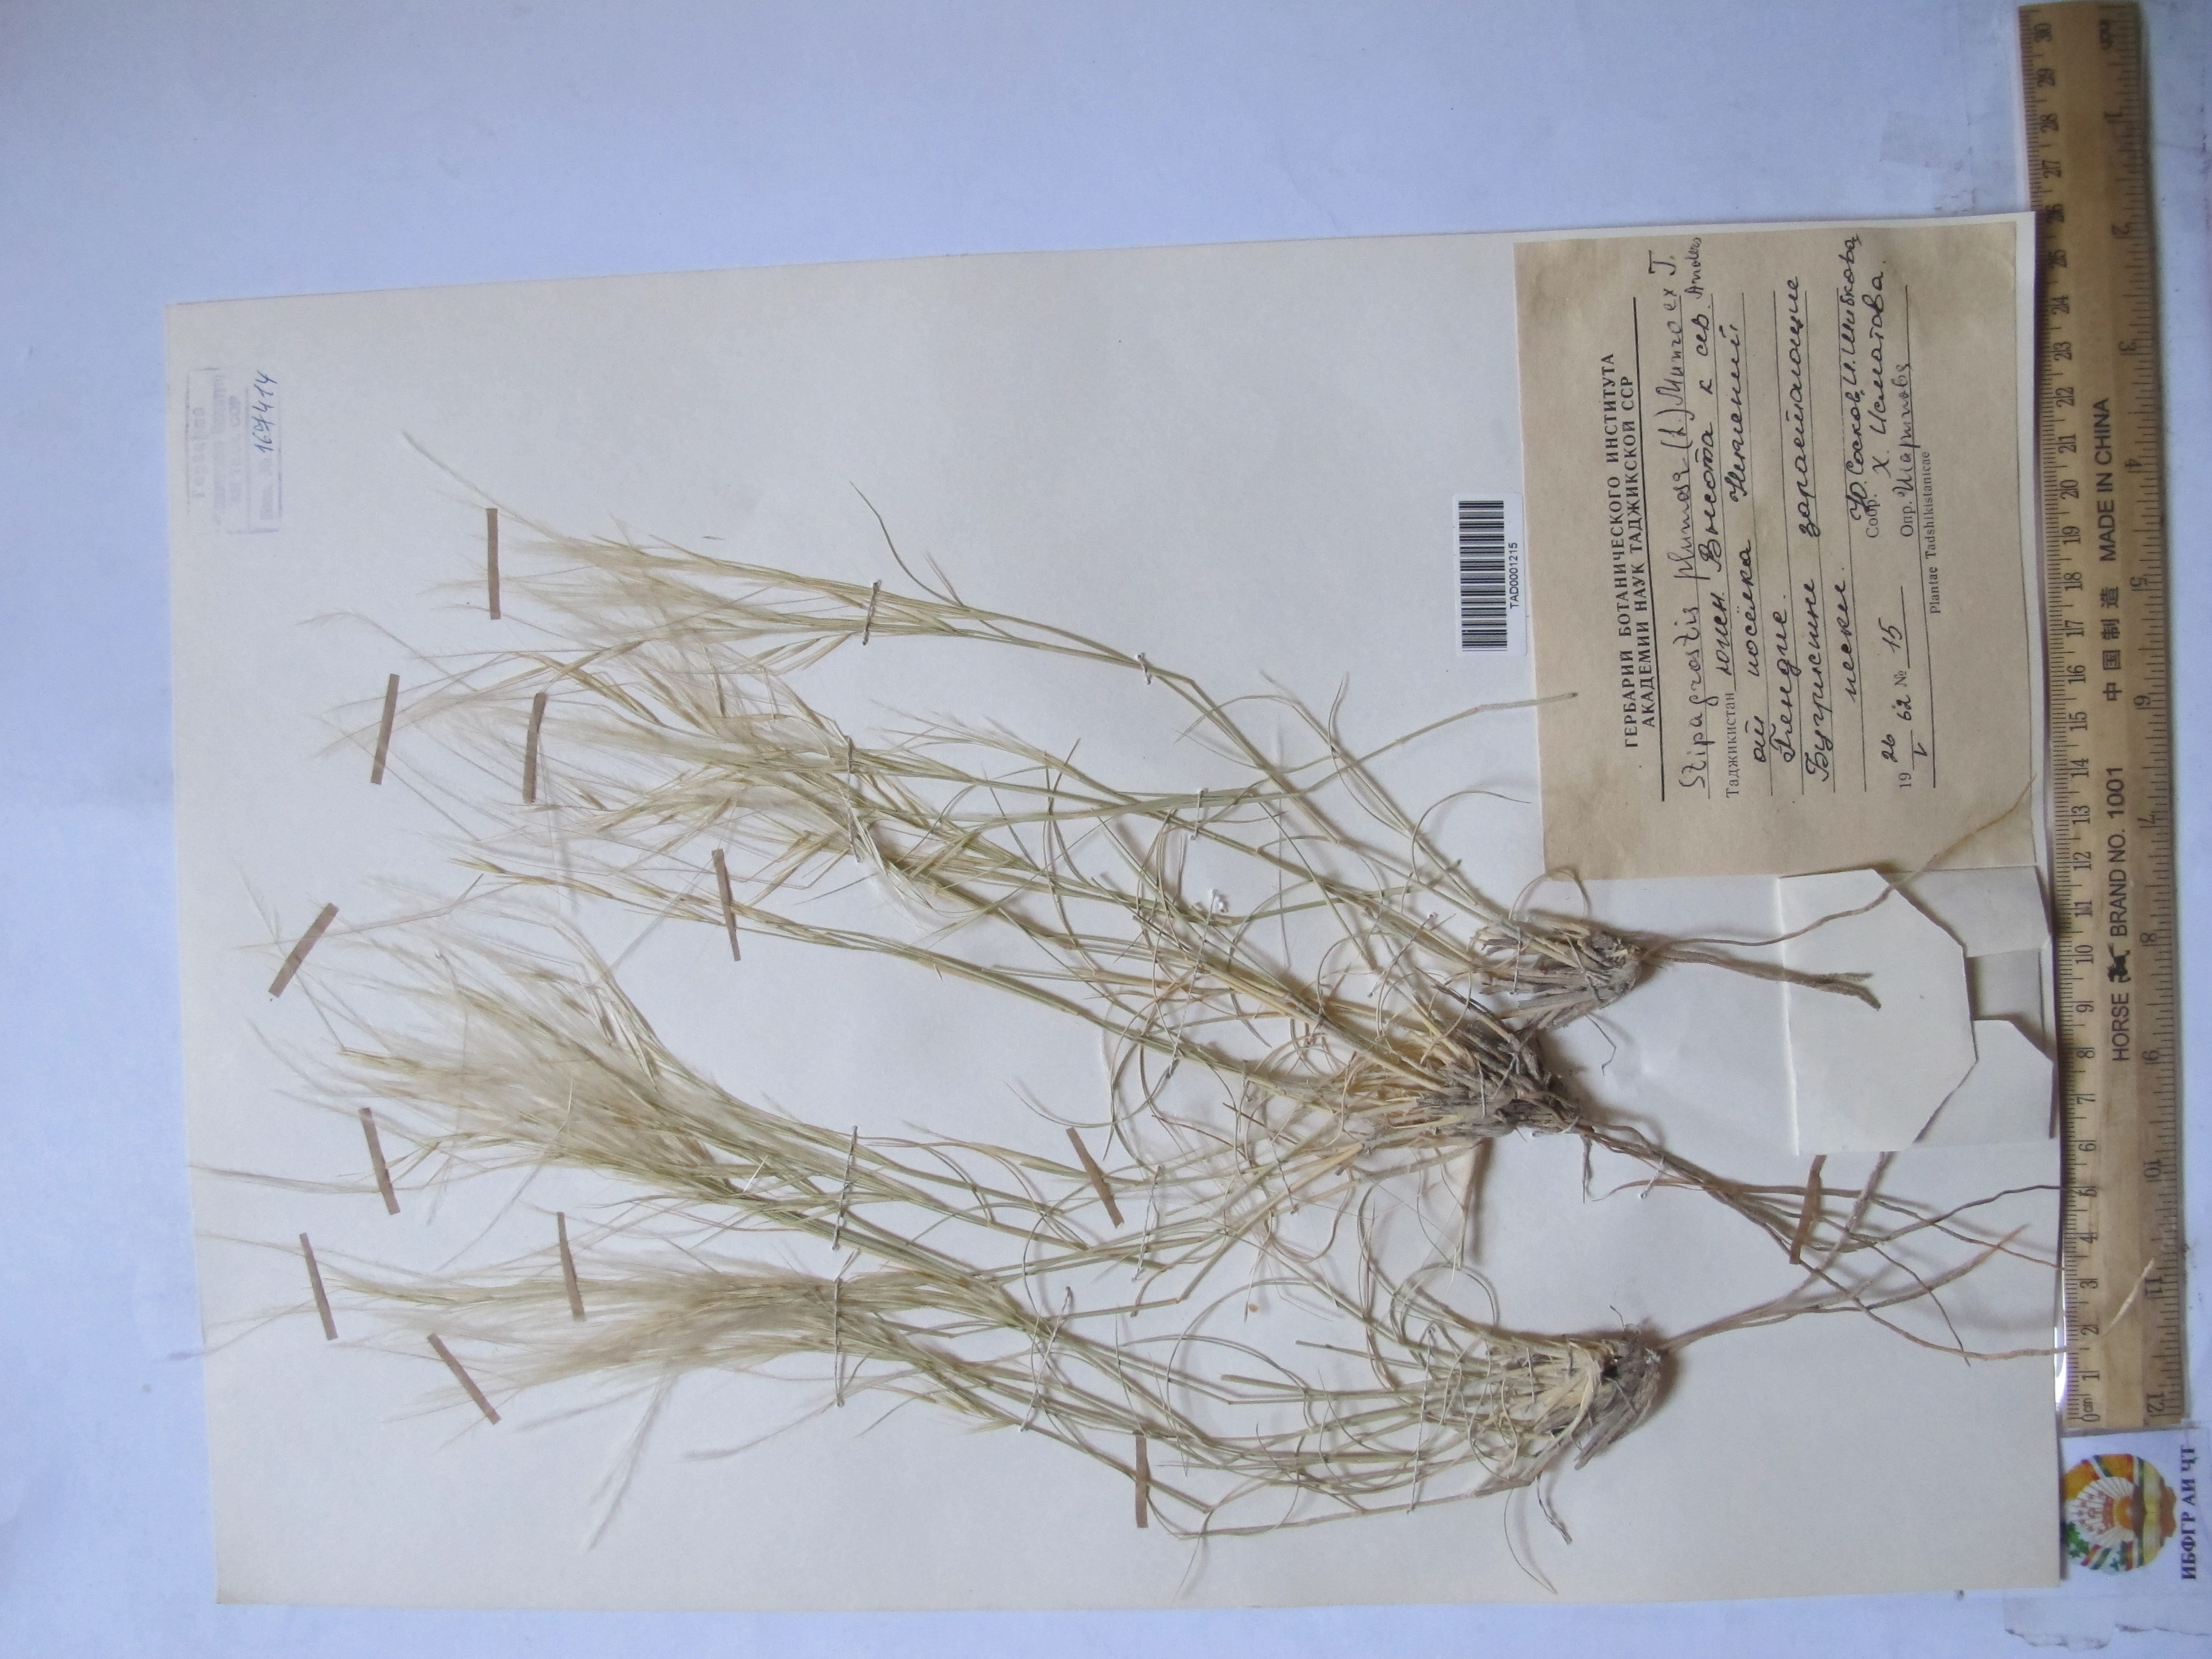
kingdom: Plantae
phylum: Tracheophyta
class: Liliopsida
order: Poales
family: Poaceae
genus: Stipagrostis
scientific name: Stipagrostis plumosa
